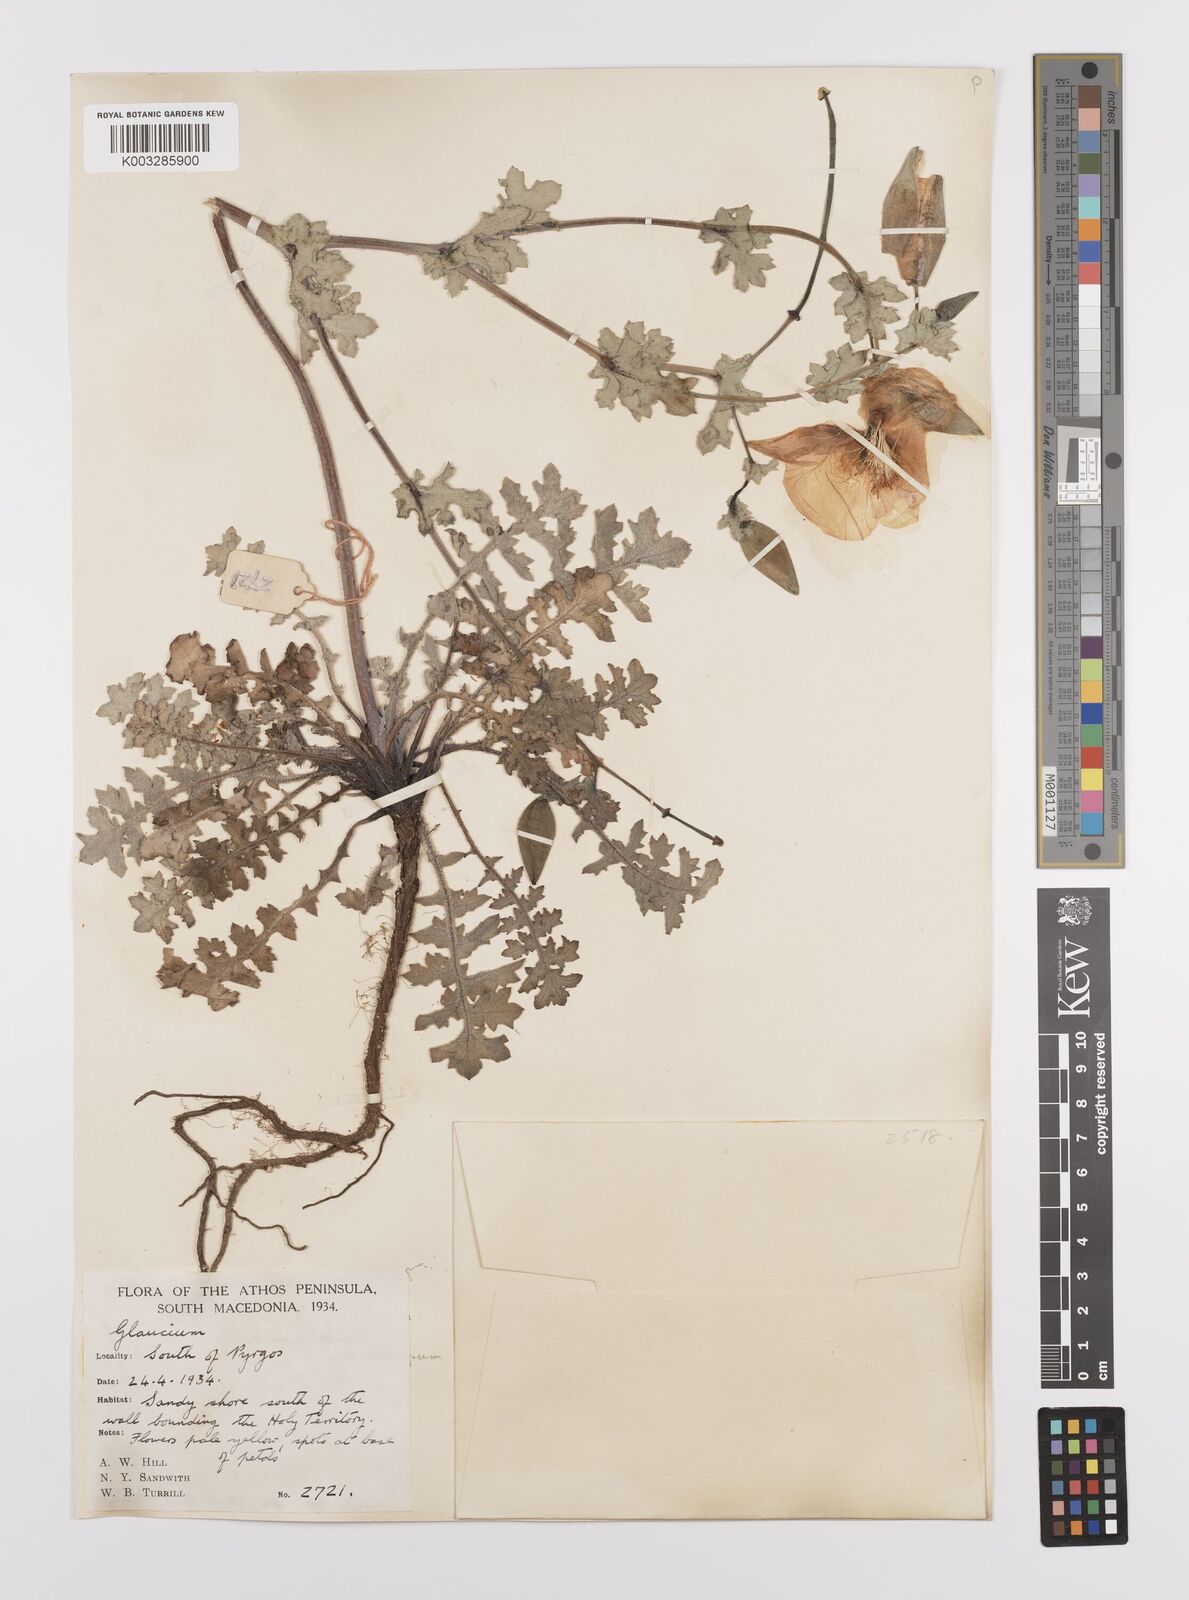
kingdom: Plantae
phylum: Tracheophyta
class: Magnoliopsida
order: Ranunculales
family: Papaveraceae
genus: Glaucium
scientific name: Glaucium flavum
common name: Yellow horned-poppy
